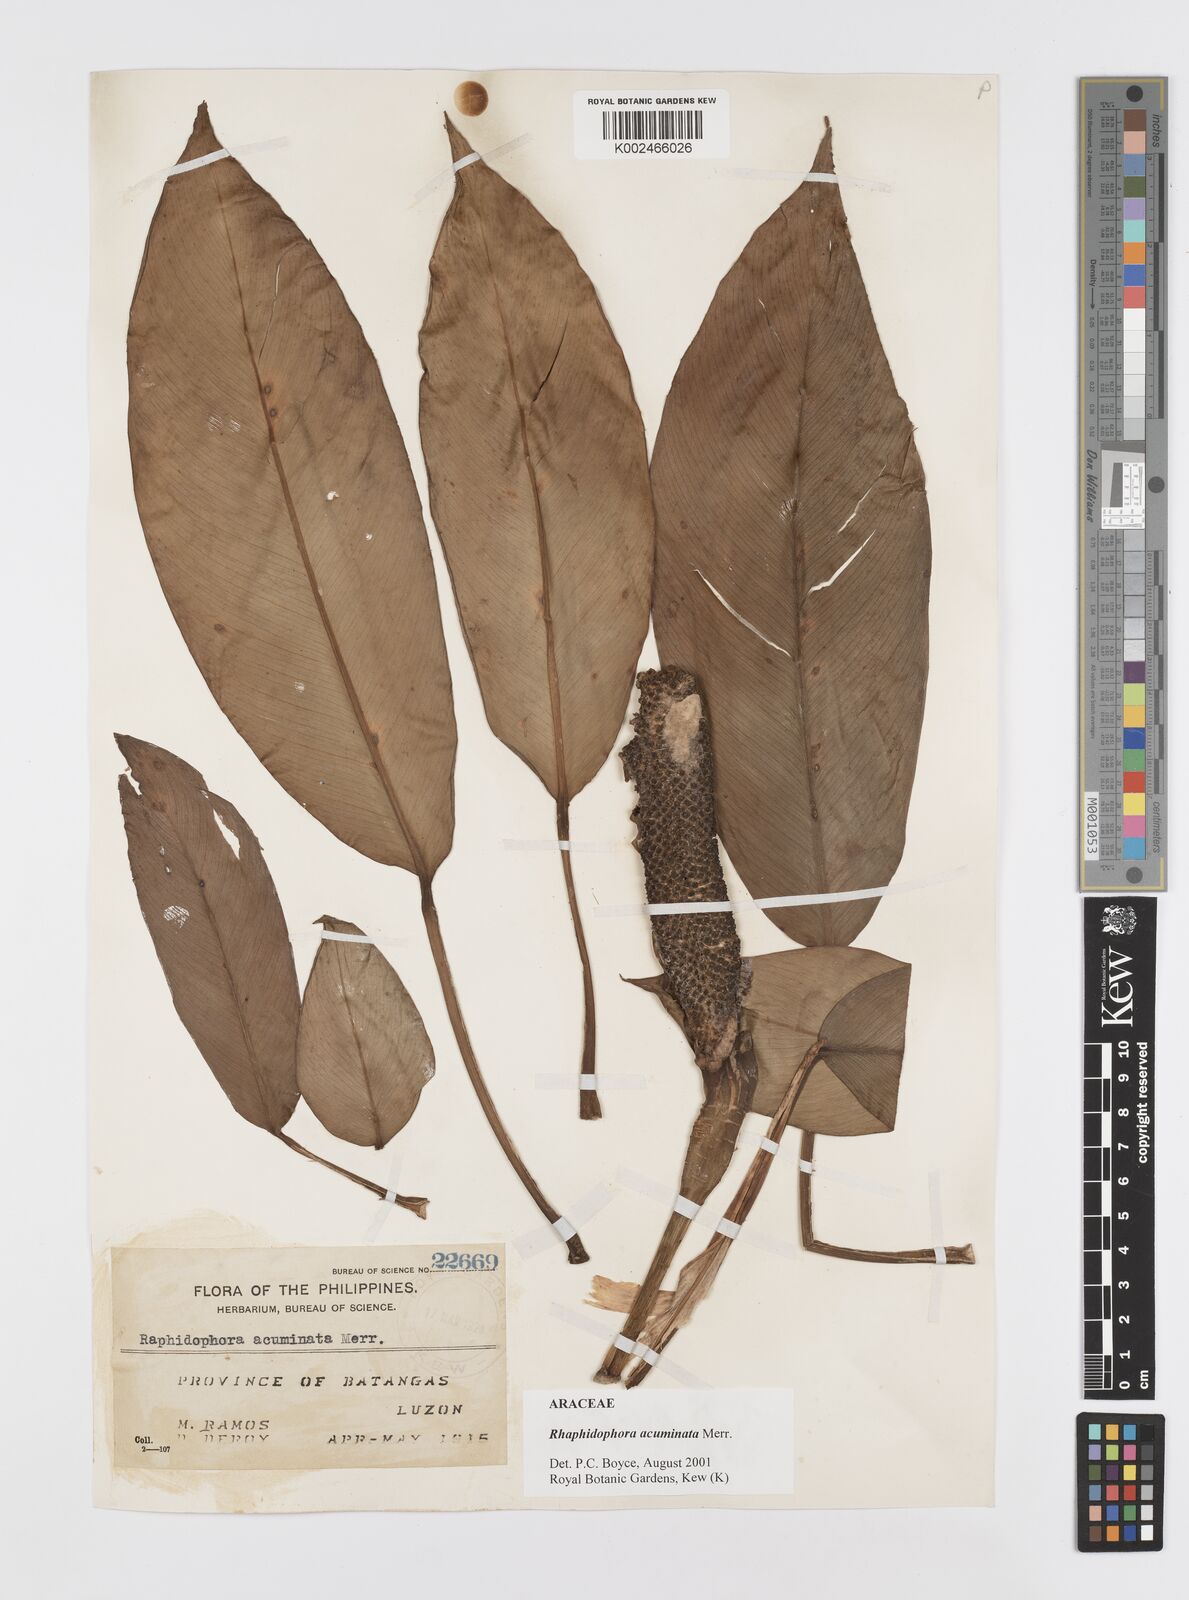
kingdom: Plantae
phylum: Tracheophyta
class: Liliopsida
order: Alismatales
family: Araceae
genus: Rhaphidophora
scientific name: Rhaphidophora acuminata
